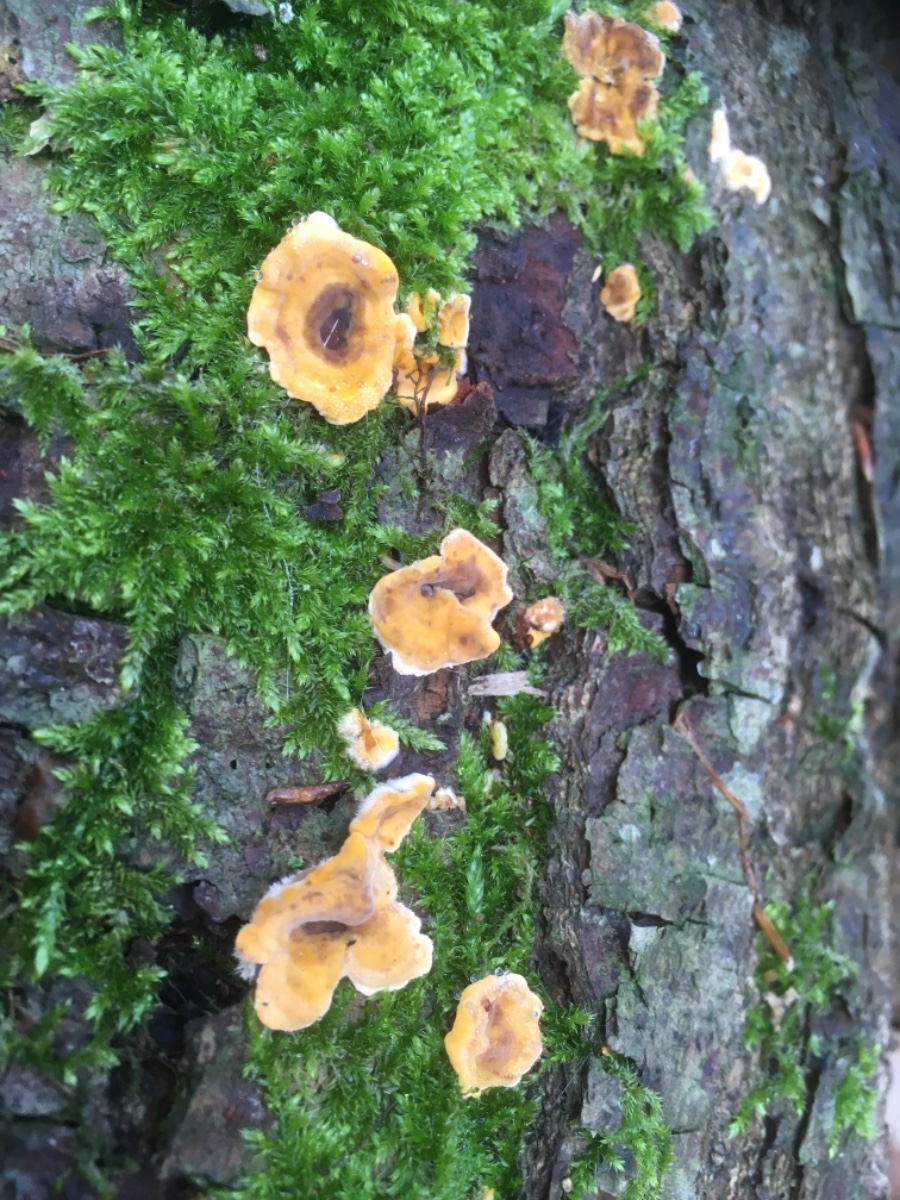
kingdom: Fungi
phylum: Basidiomycota
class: Agaricomycetes
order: Russulales
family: Stereaceae
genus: Stereum
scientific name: Stereum hirsutum
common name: håret lædersvamp
